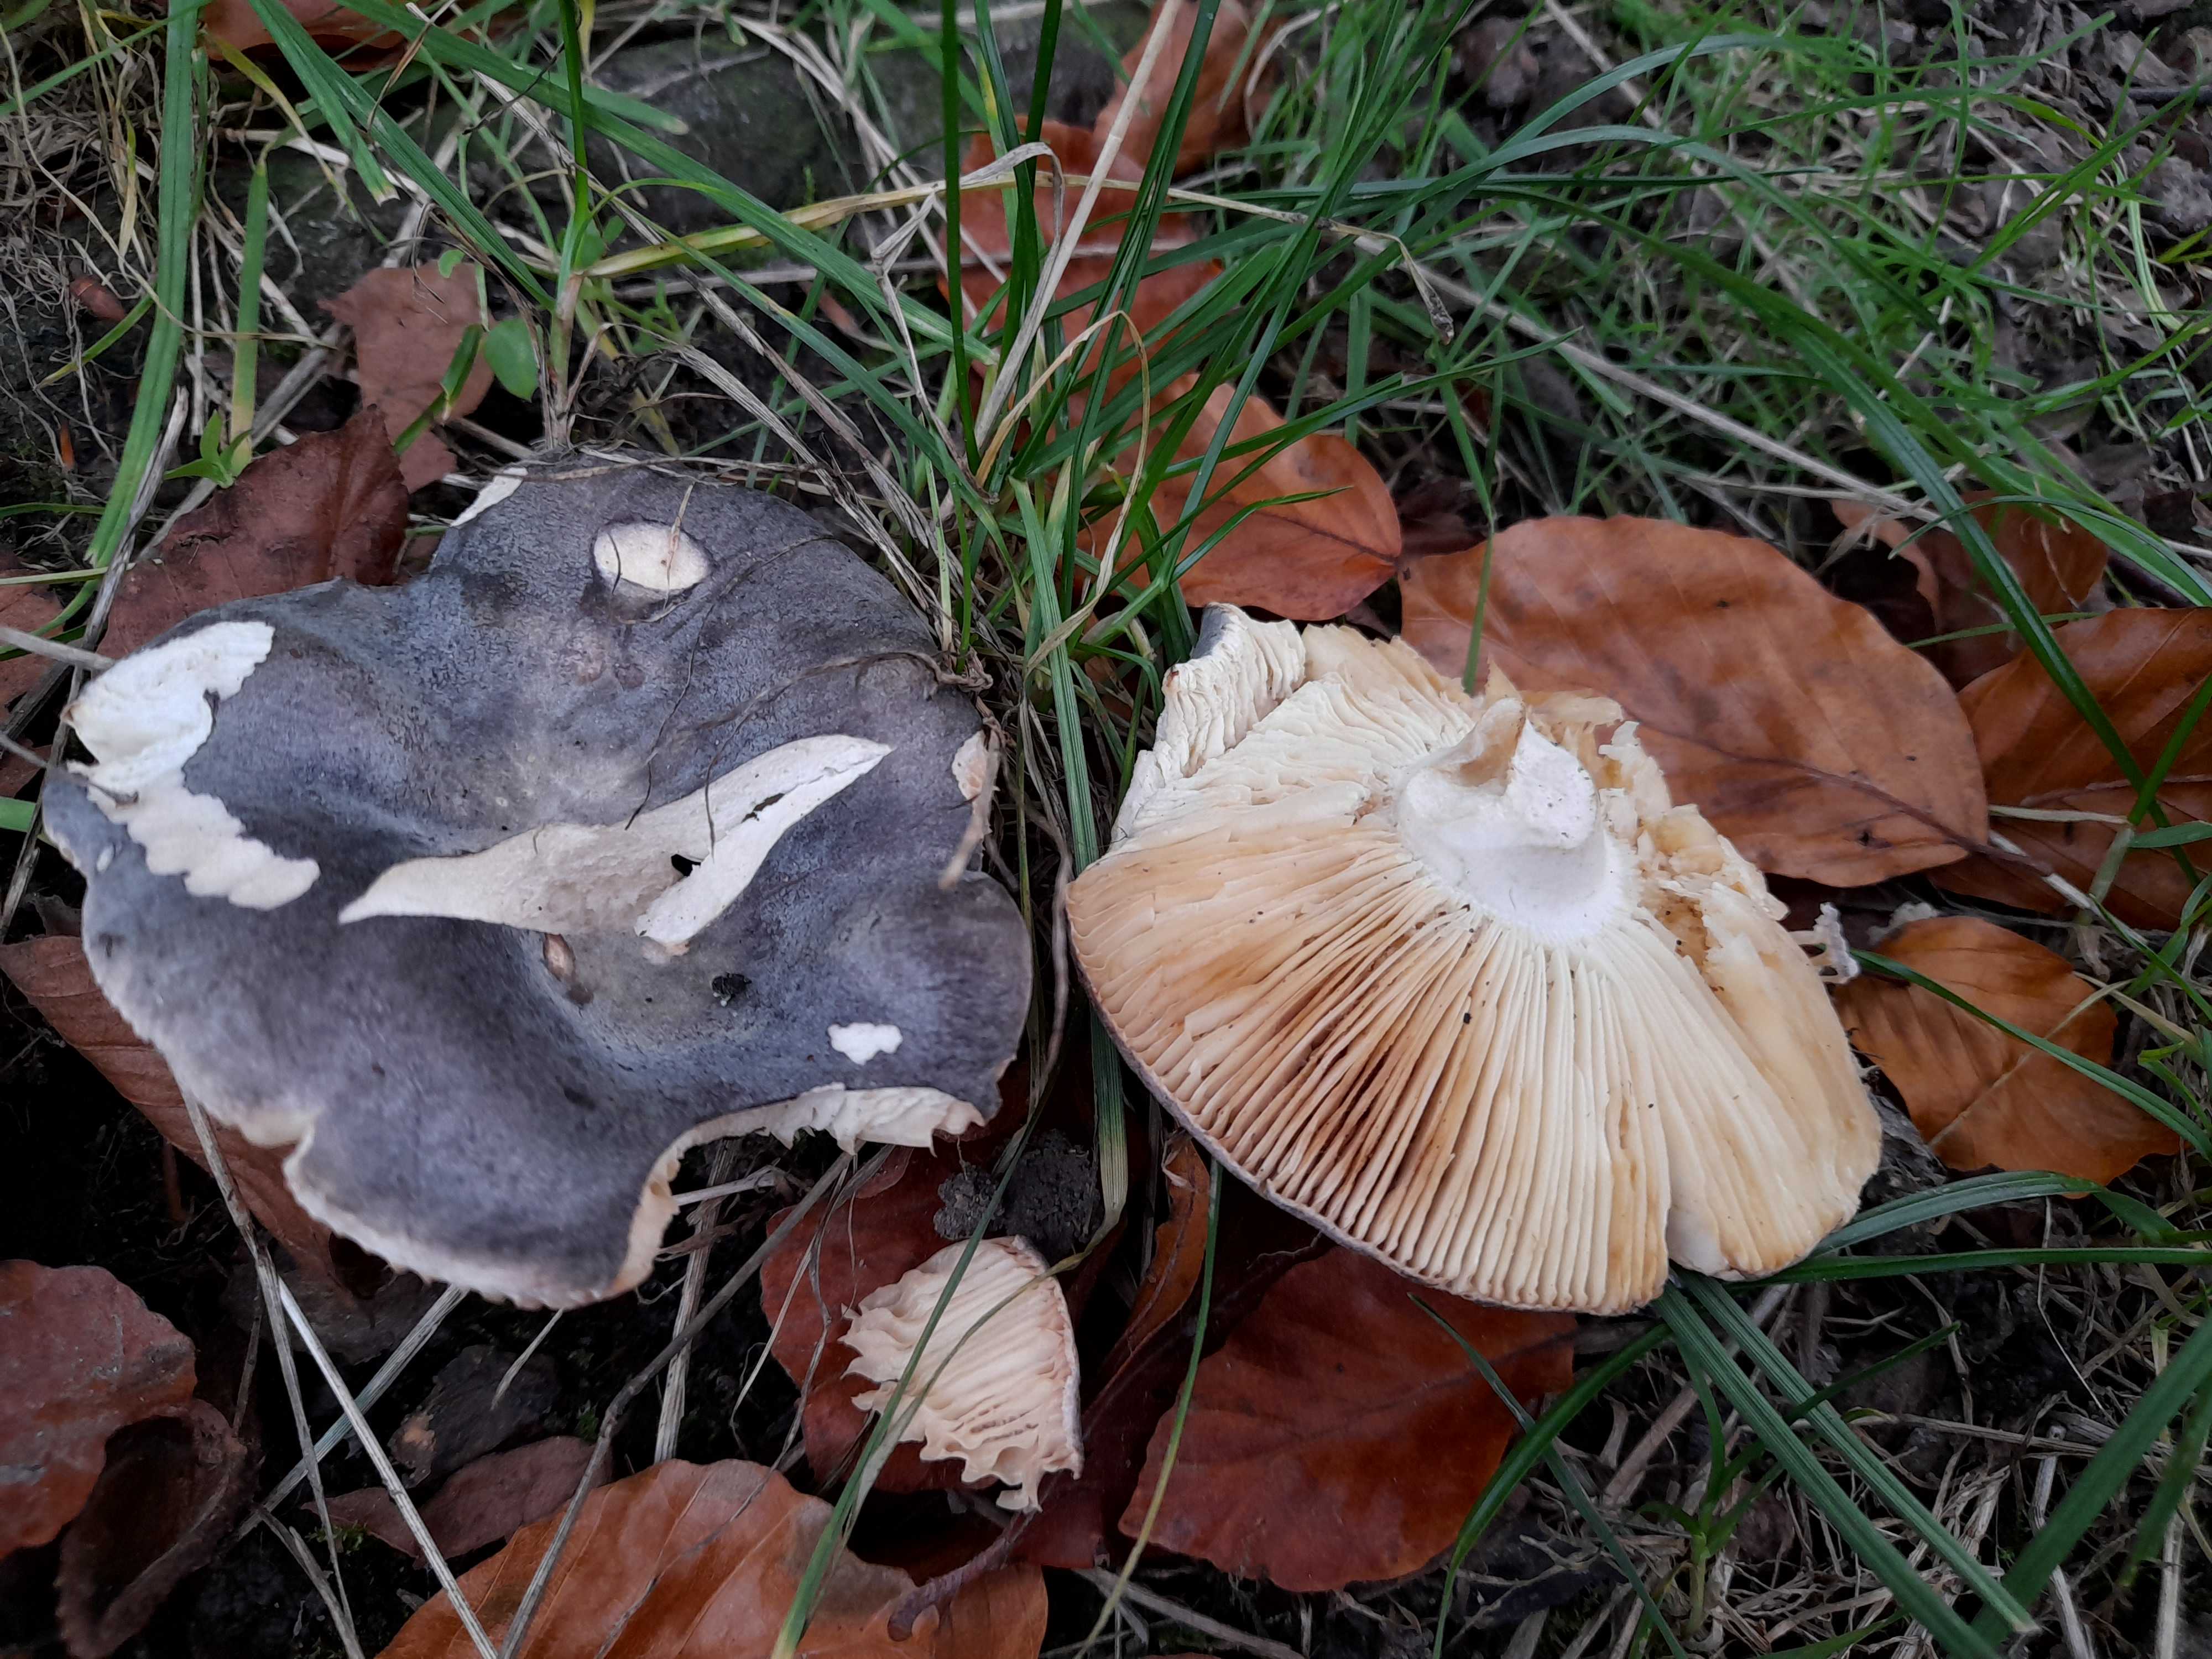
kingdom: Fungi
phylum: Basidiomycota
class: Agaricomycetes
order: Russulales
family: Russulaceae
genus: Russula
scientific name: Russula parazurea
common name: blågrå skørhat
